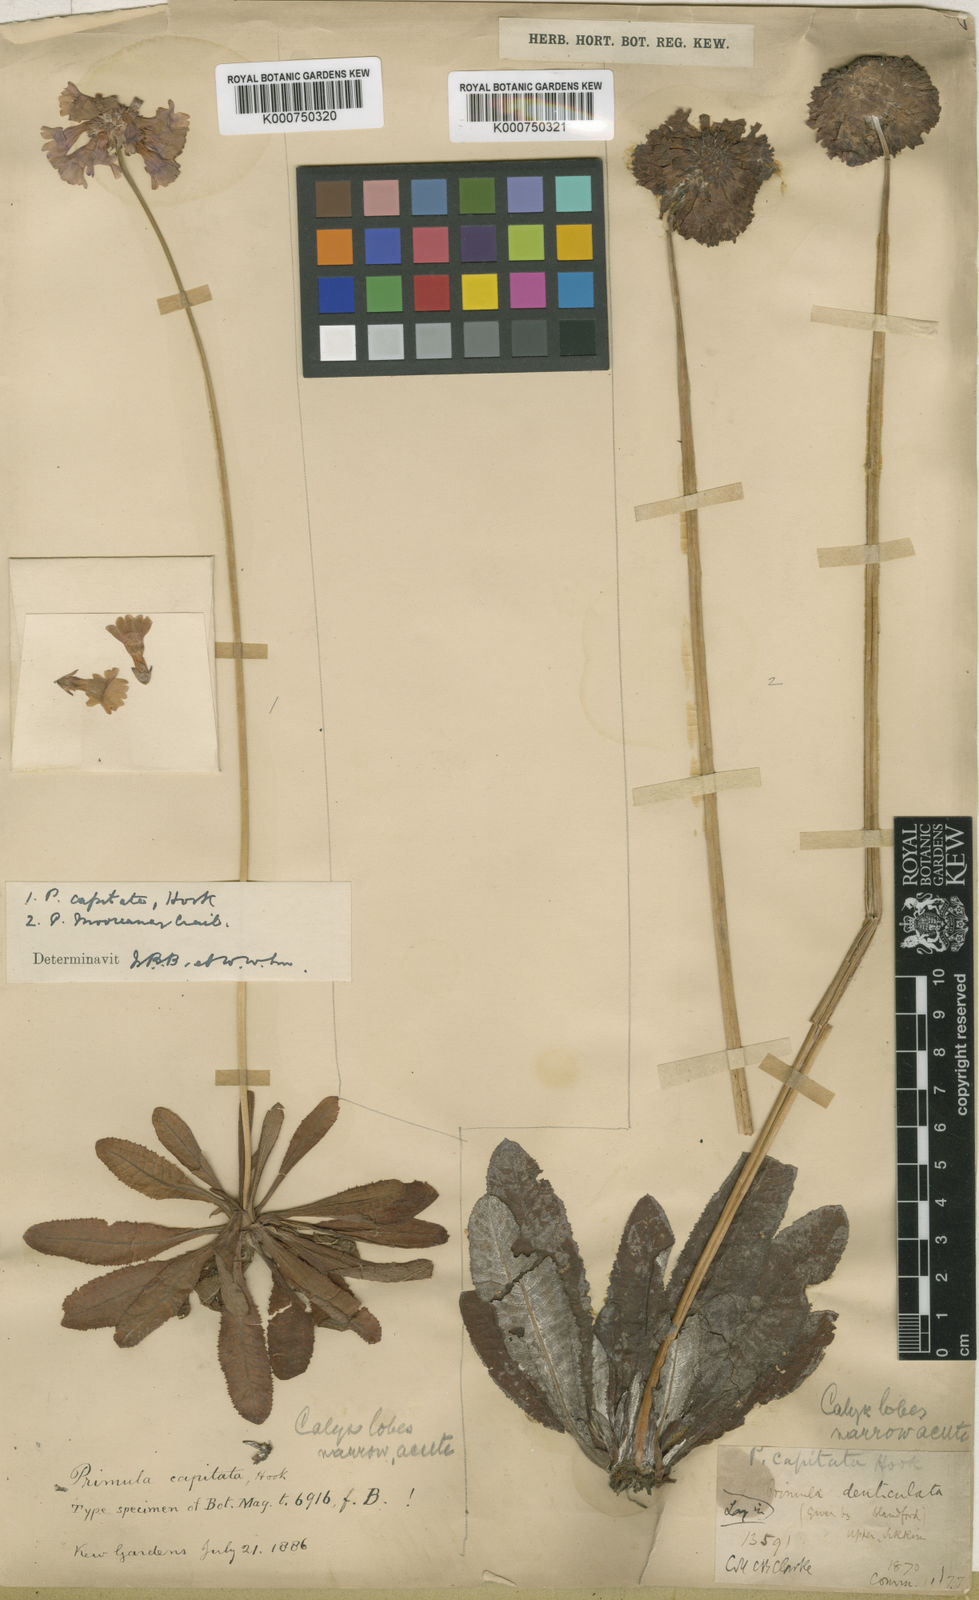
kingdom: Plantae
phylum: Tracheophyta
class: Magnoliopsida
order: Ericales
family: Primulaceae
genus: Primula
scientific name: Primula capitata
